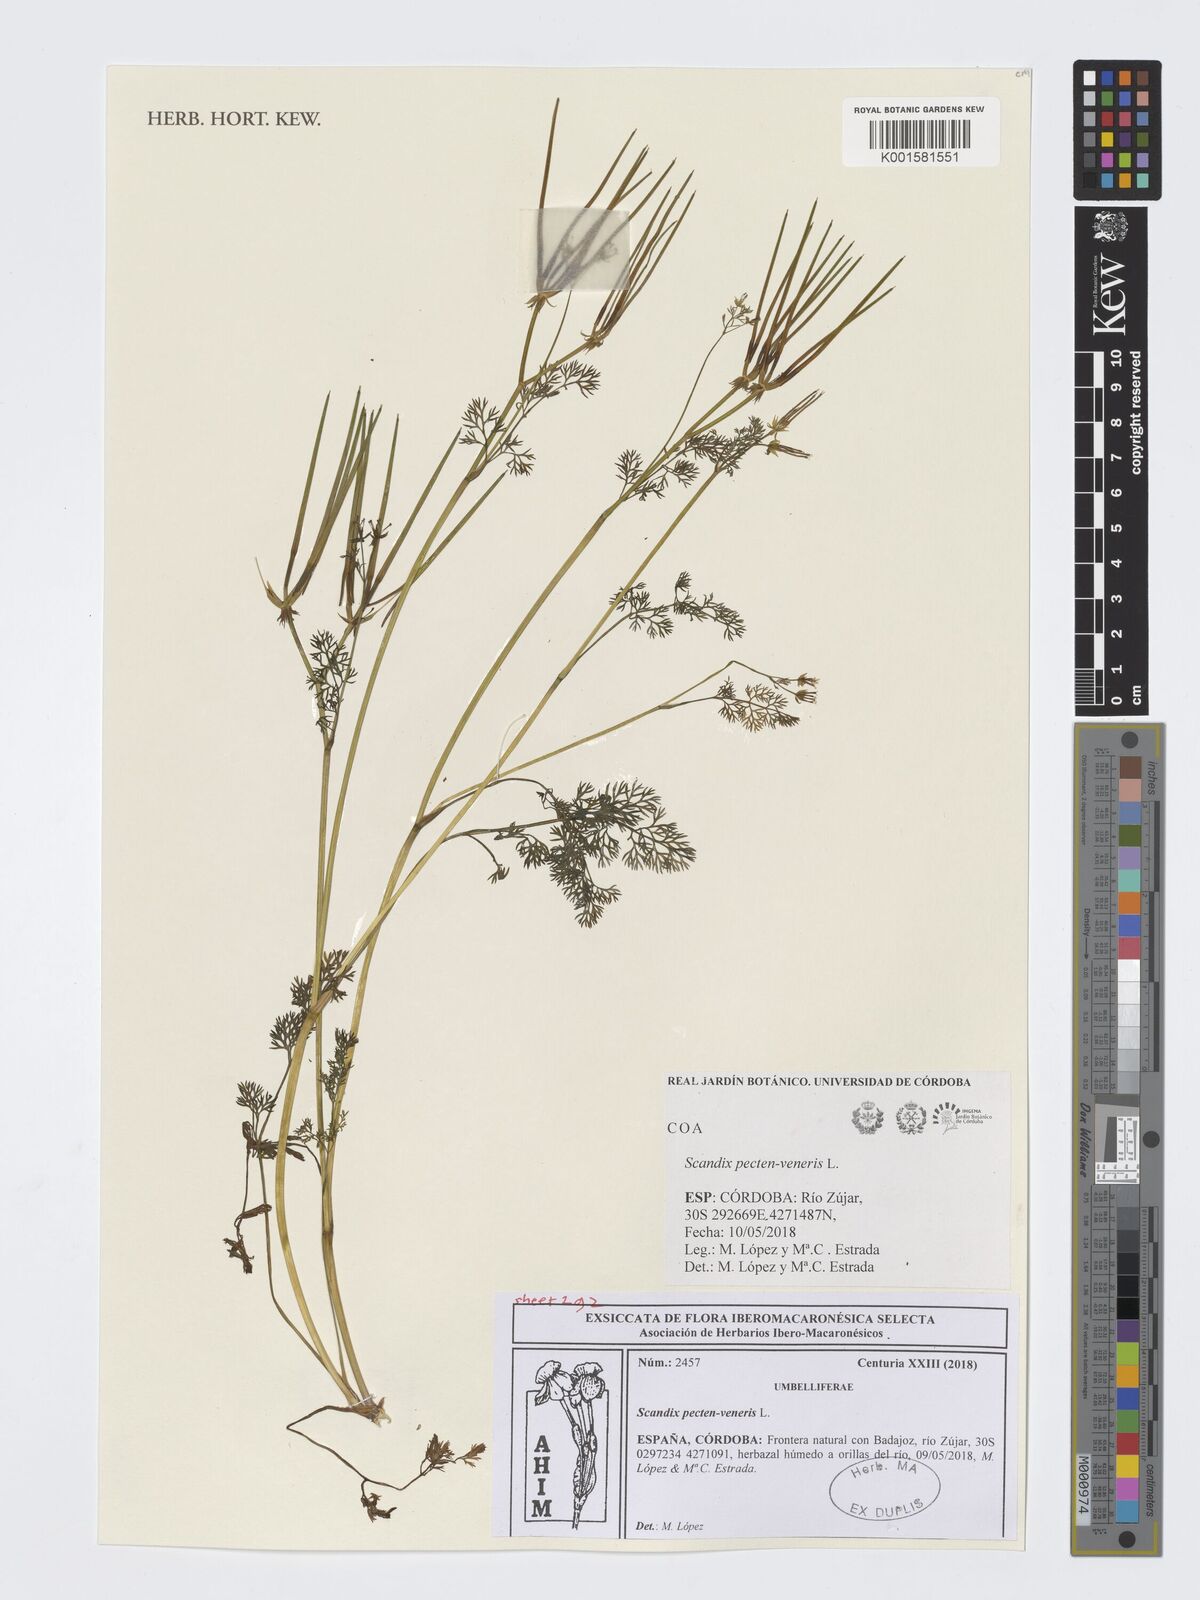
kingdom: Plantae
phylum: Tracheophyta
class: Magnoliopsida
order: Apiales
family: Apiaceae
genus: Scandix
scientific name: Scandix pecten-veneris
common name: Shepherd's-needle
